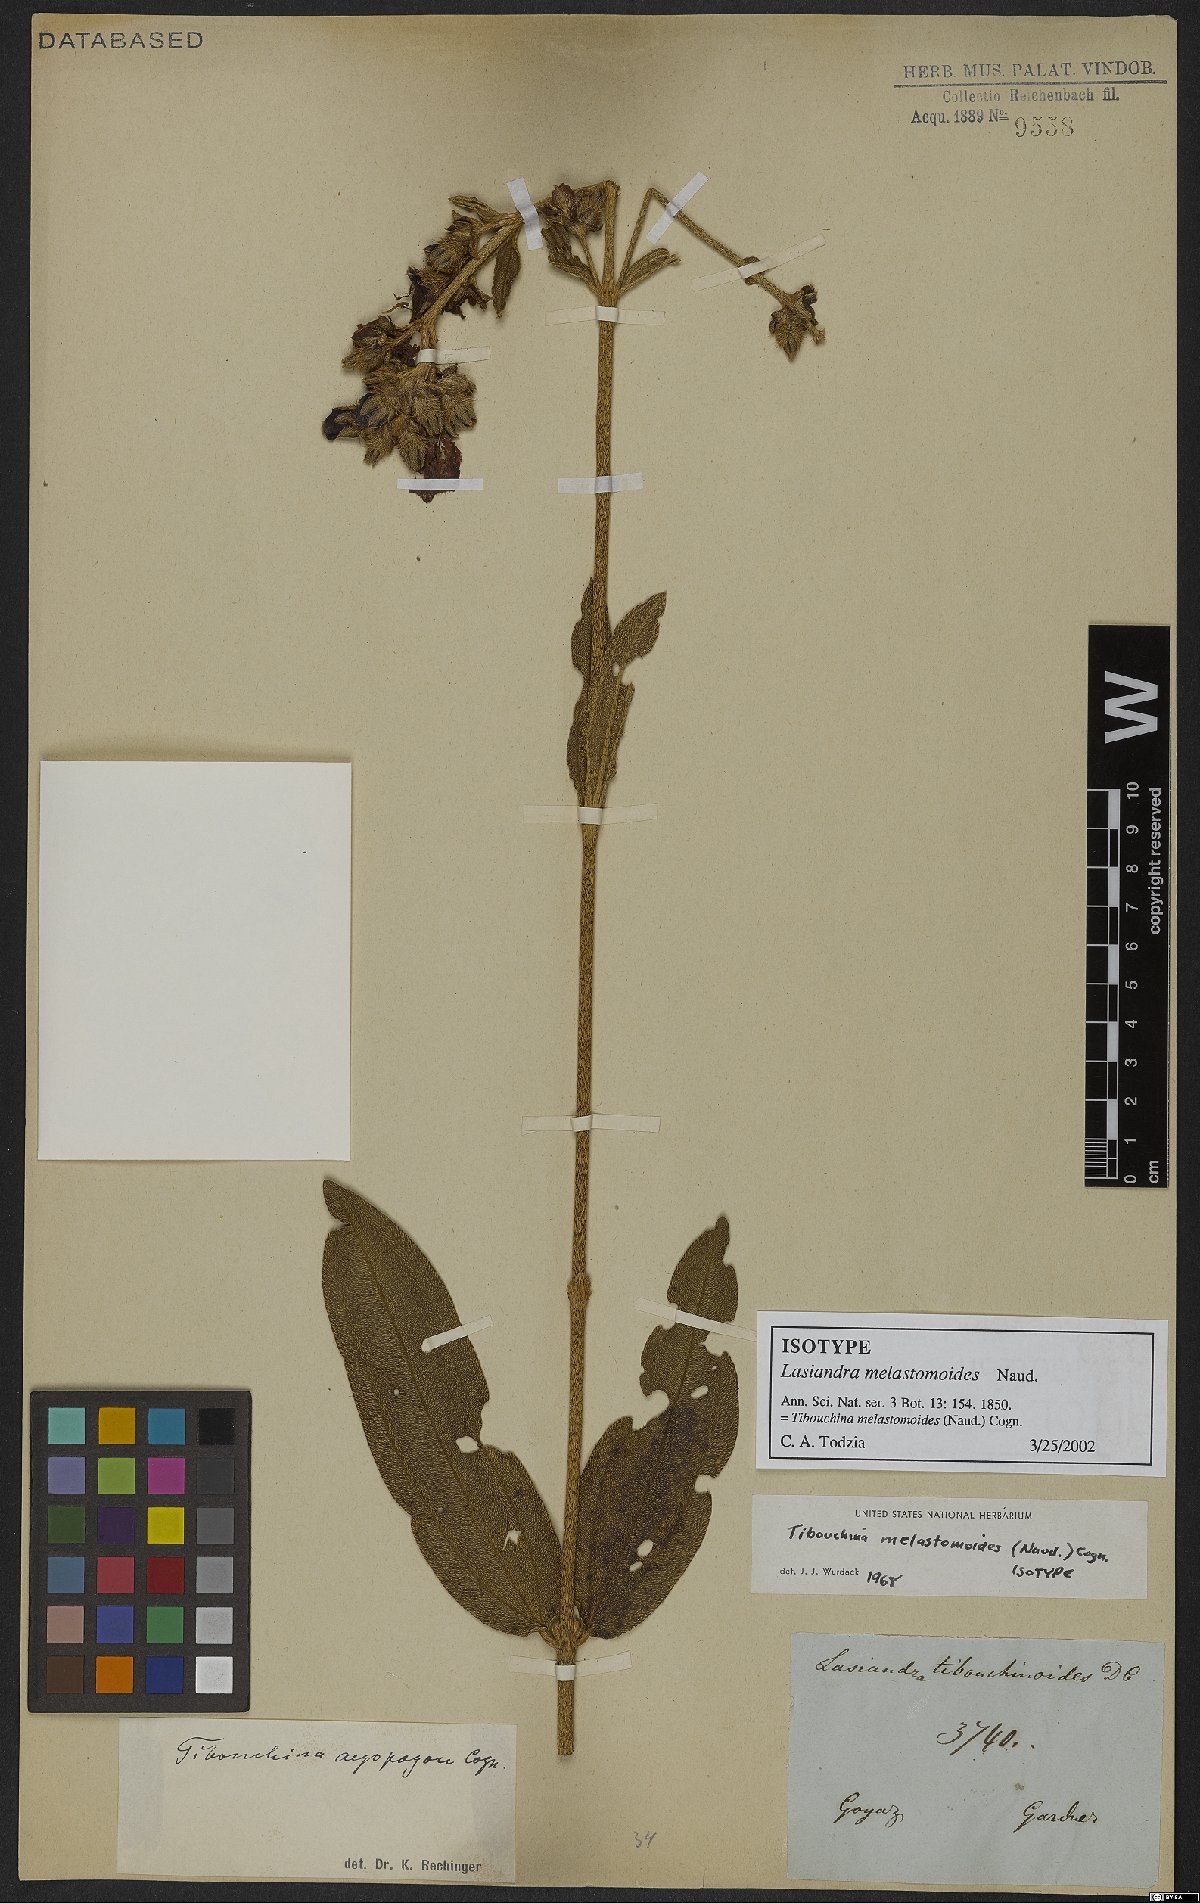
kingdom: Plantae
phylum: Tracheophyta
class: Magnoliopsida
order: Myrtales
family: Melastomataceae
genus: Pleroma
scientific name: Pleroma melastomoides
